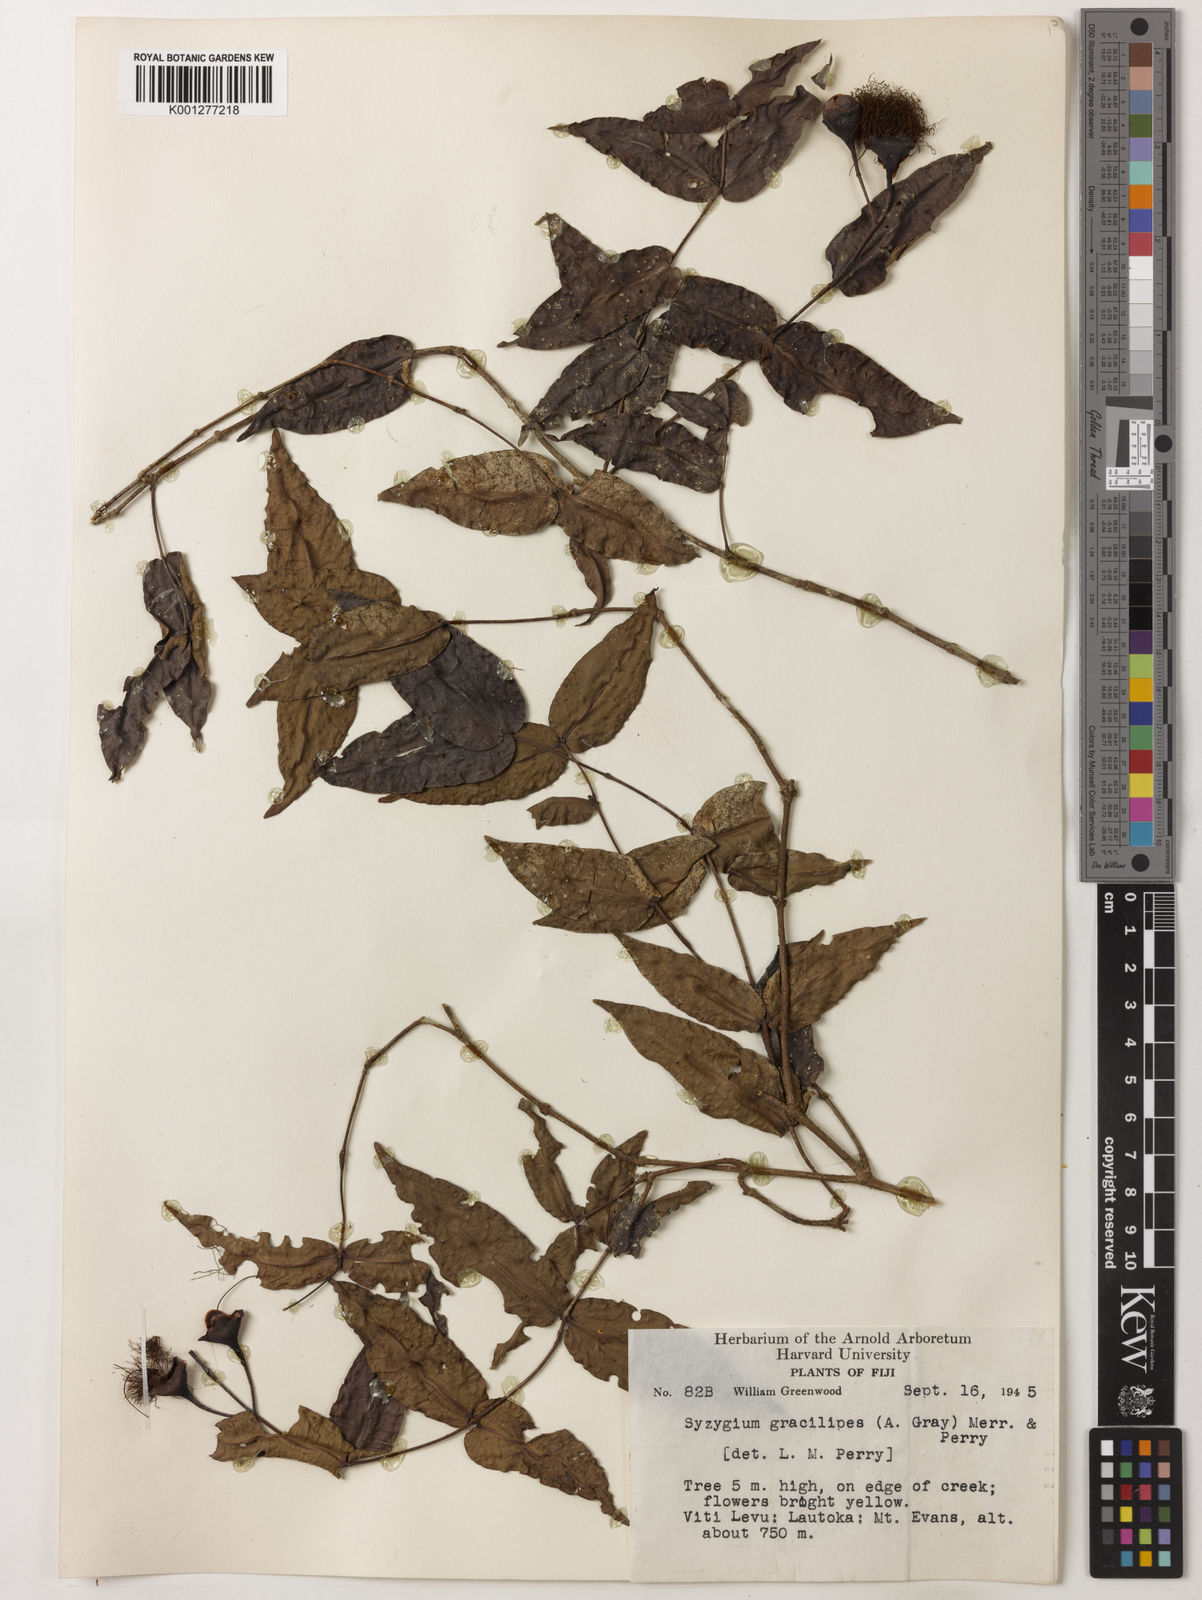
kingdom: Plantae
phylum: Tracheophyta
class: Magnoliopsida
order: Myrtales
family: Myrtaceae
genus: Syzygium
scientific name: Syzygium gracilipes
